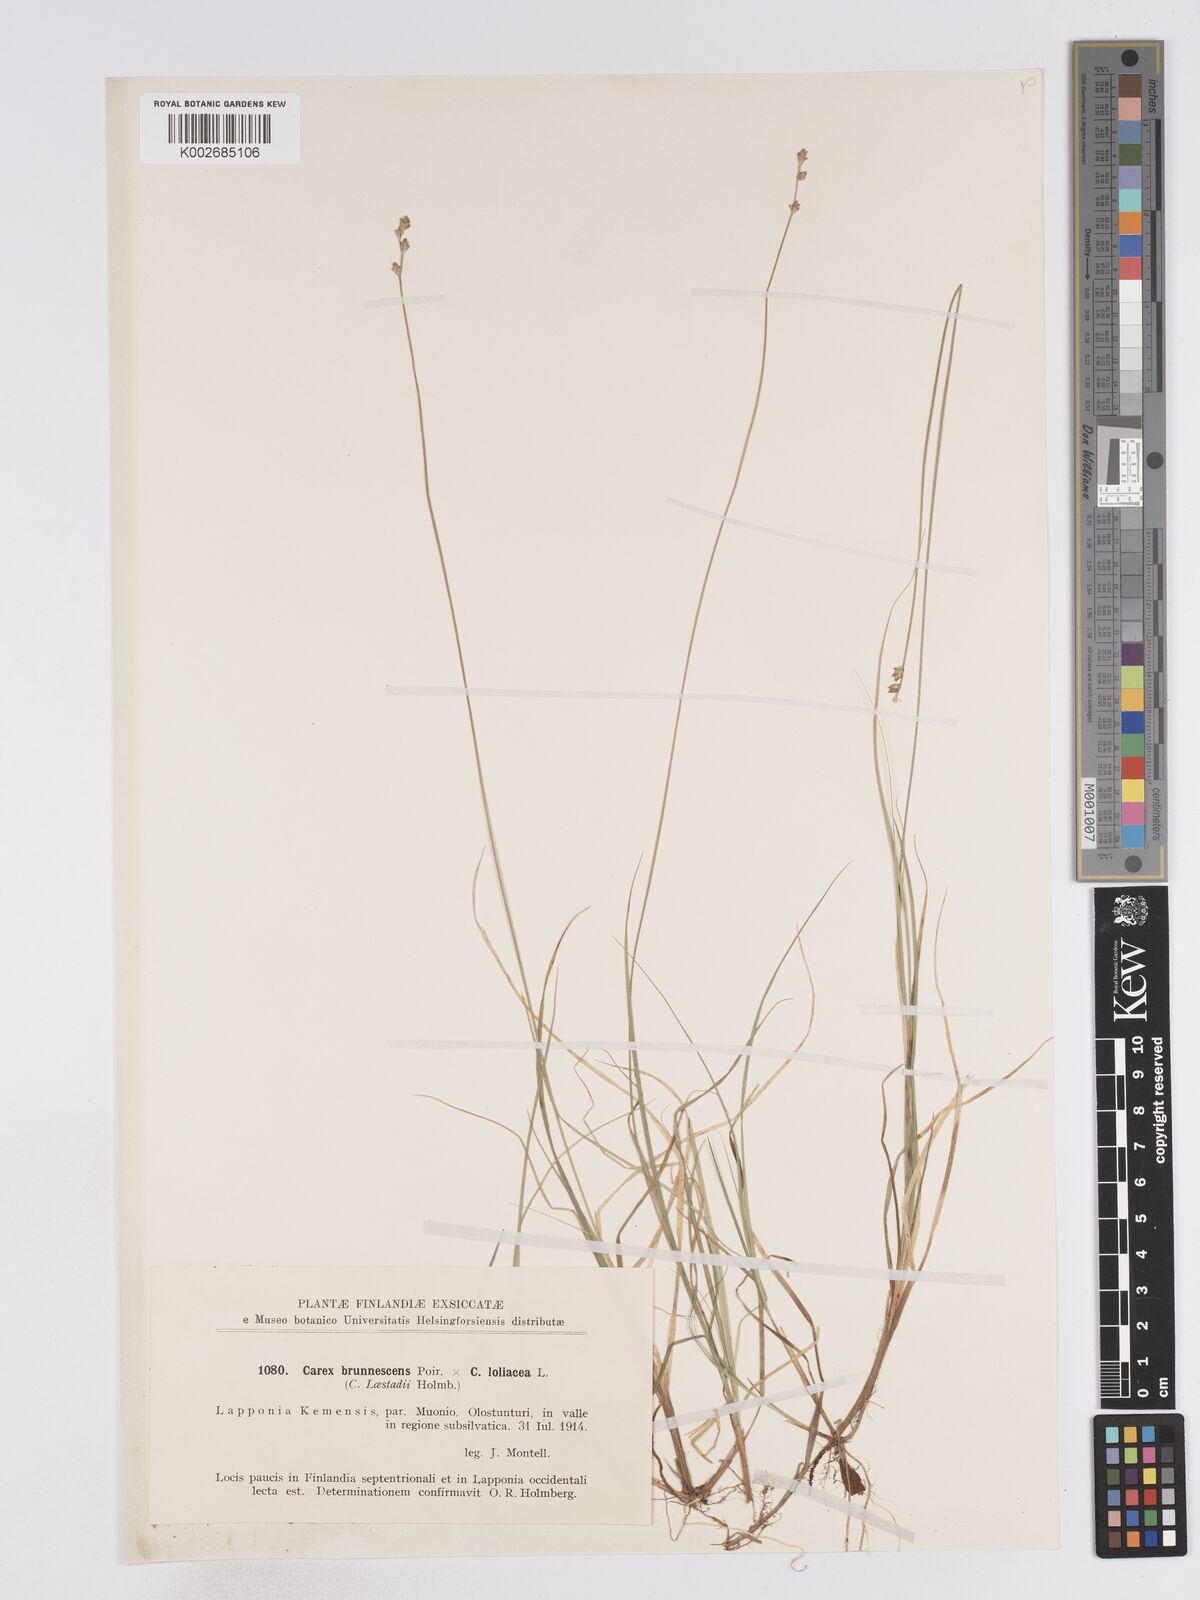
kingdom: Plantae
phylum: Tracheophyta
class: Liliopsida
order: Poales
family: Cyperaceae
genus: Carex
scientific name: Carex brunnescens
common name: Brown sedge
